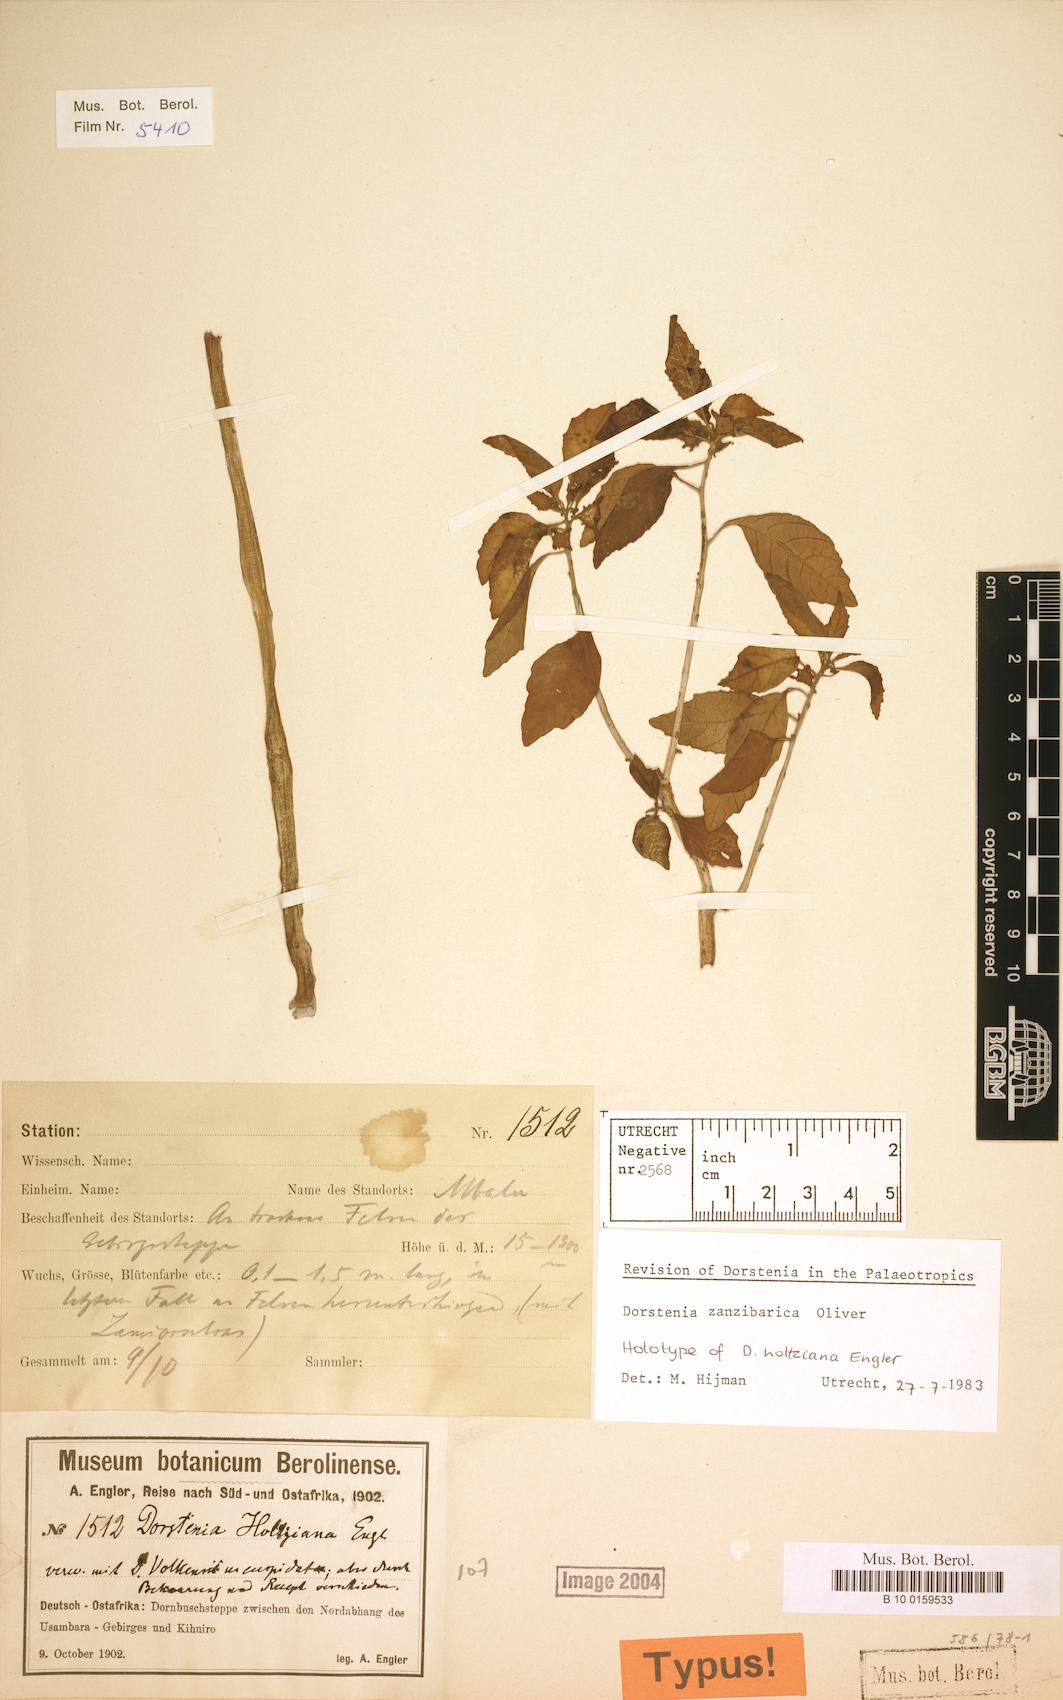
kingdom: Plantae
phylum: Tracheophyta
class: Magnoliopsida
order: Rosales
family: Moraceae
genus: Dorstenia
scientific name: Dorstenia zanzibarica
